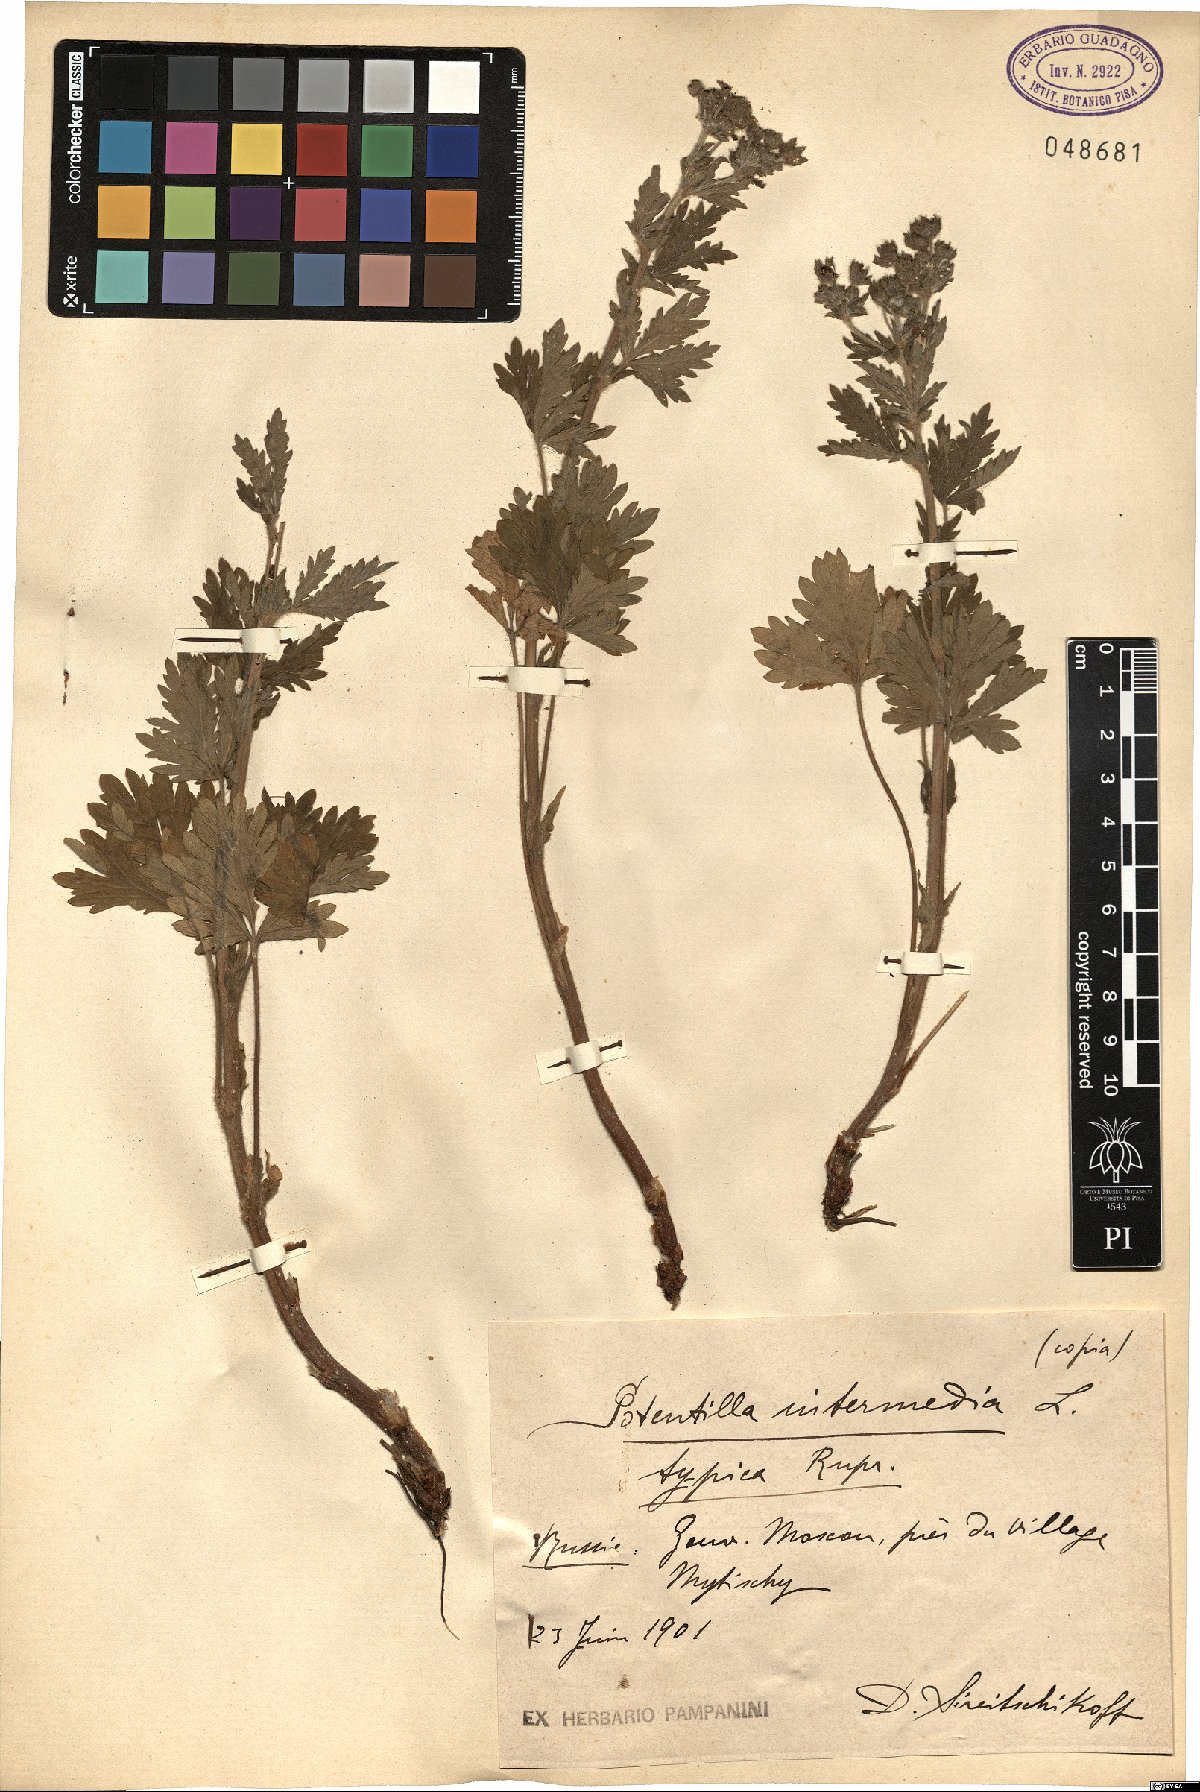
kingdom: Plantae
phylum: Tracheophyta
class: Magnoliopsida
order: Rosales
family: Rosaceae
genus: Potentilla
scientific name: Potentilla intermedia
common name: Downy cinquefoil
